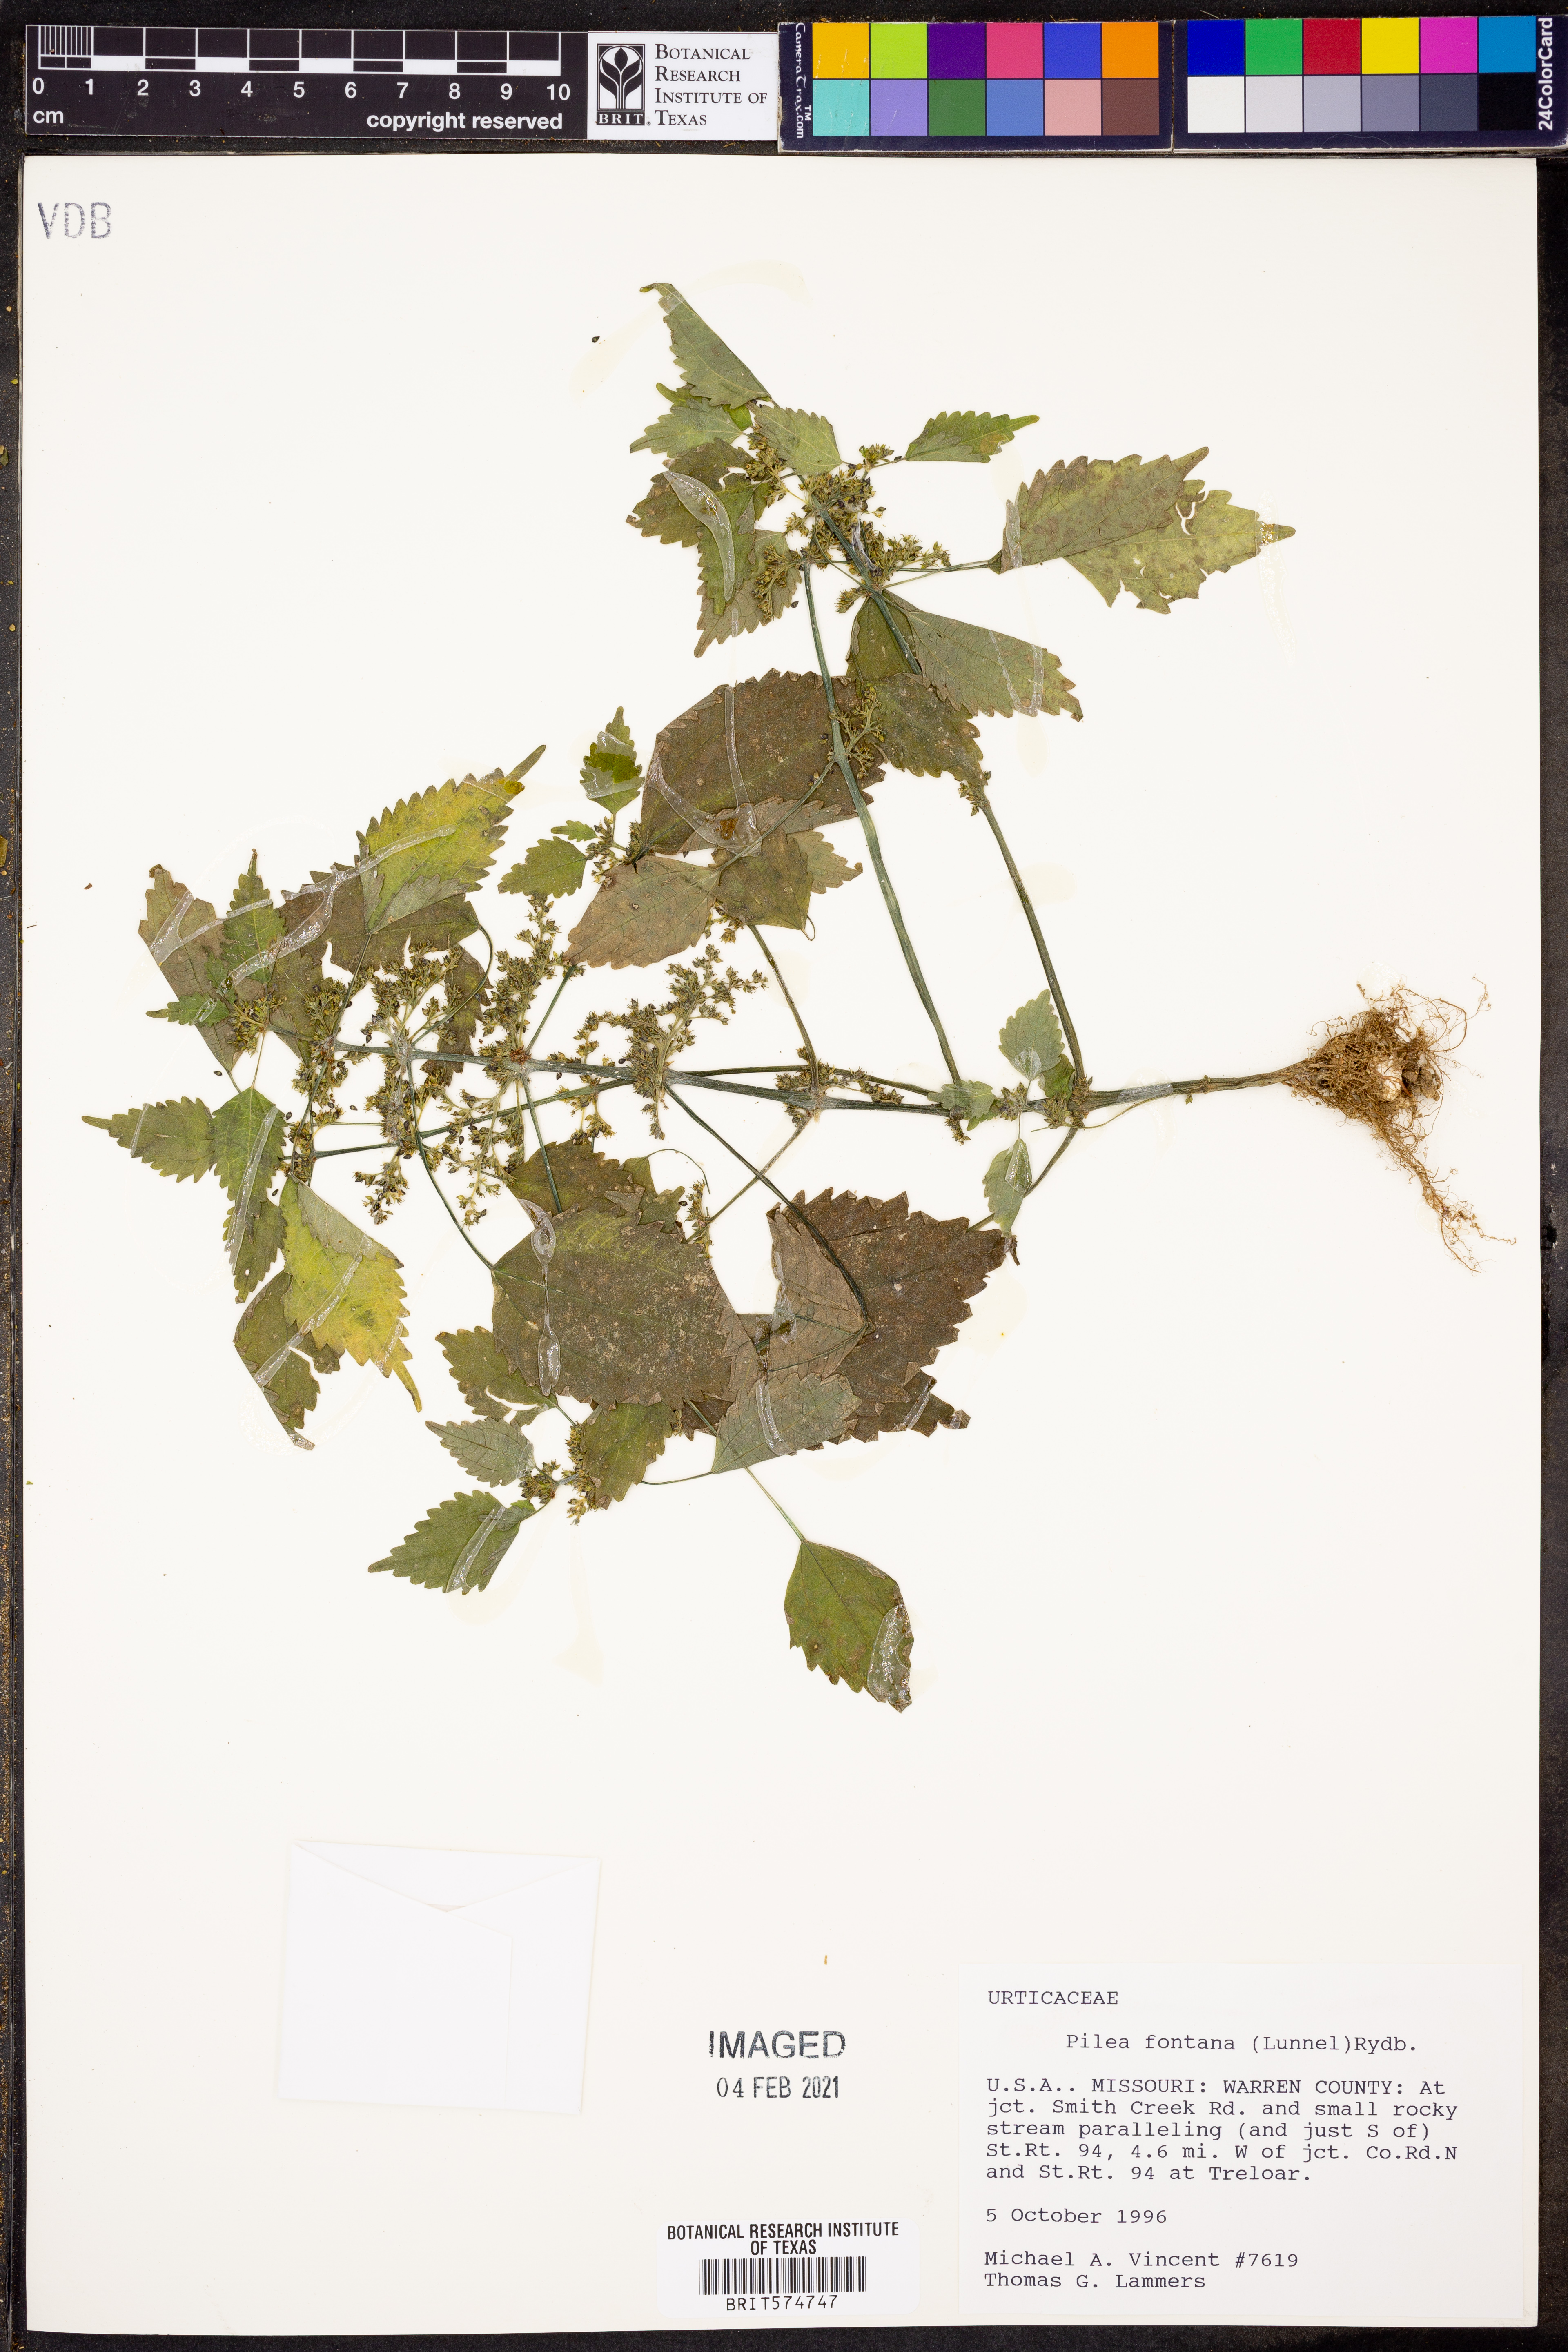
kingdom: Plantae
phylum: Tracheophyta
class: Magnoliopsida
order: Rosales
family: Urticaceae
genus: Pilea
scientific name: Pilea fontana
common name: Clearweed
